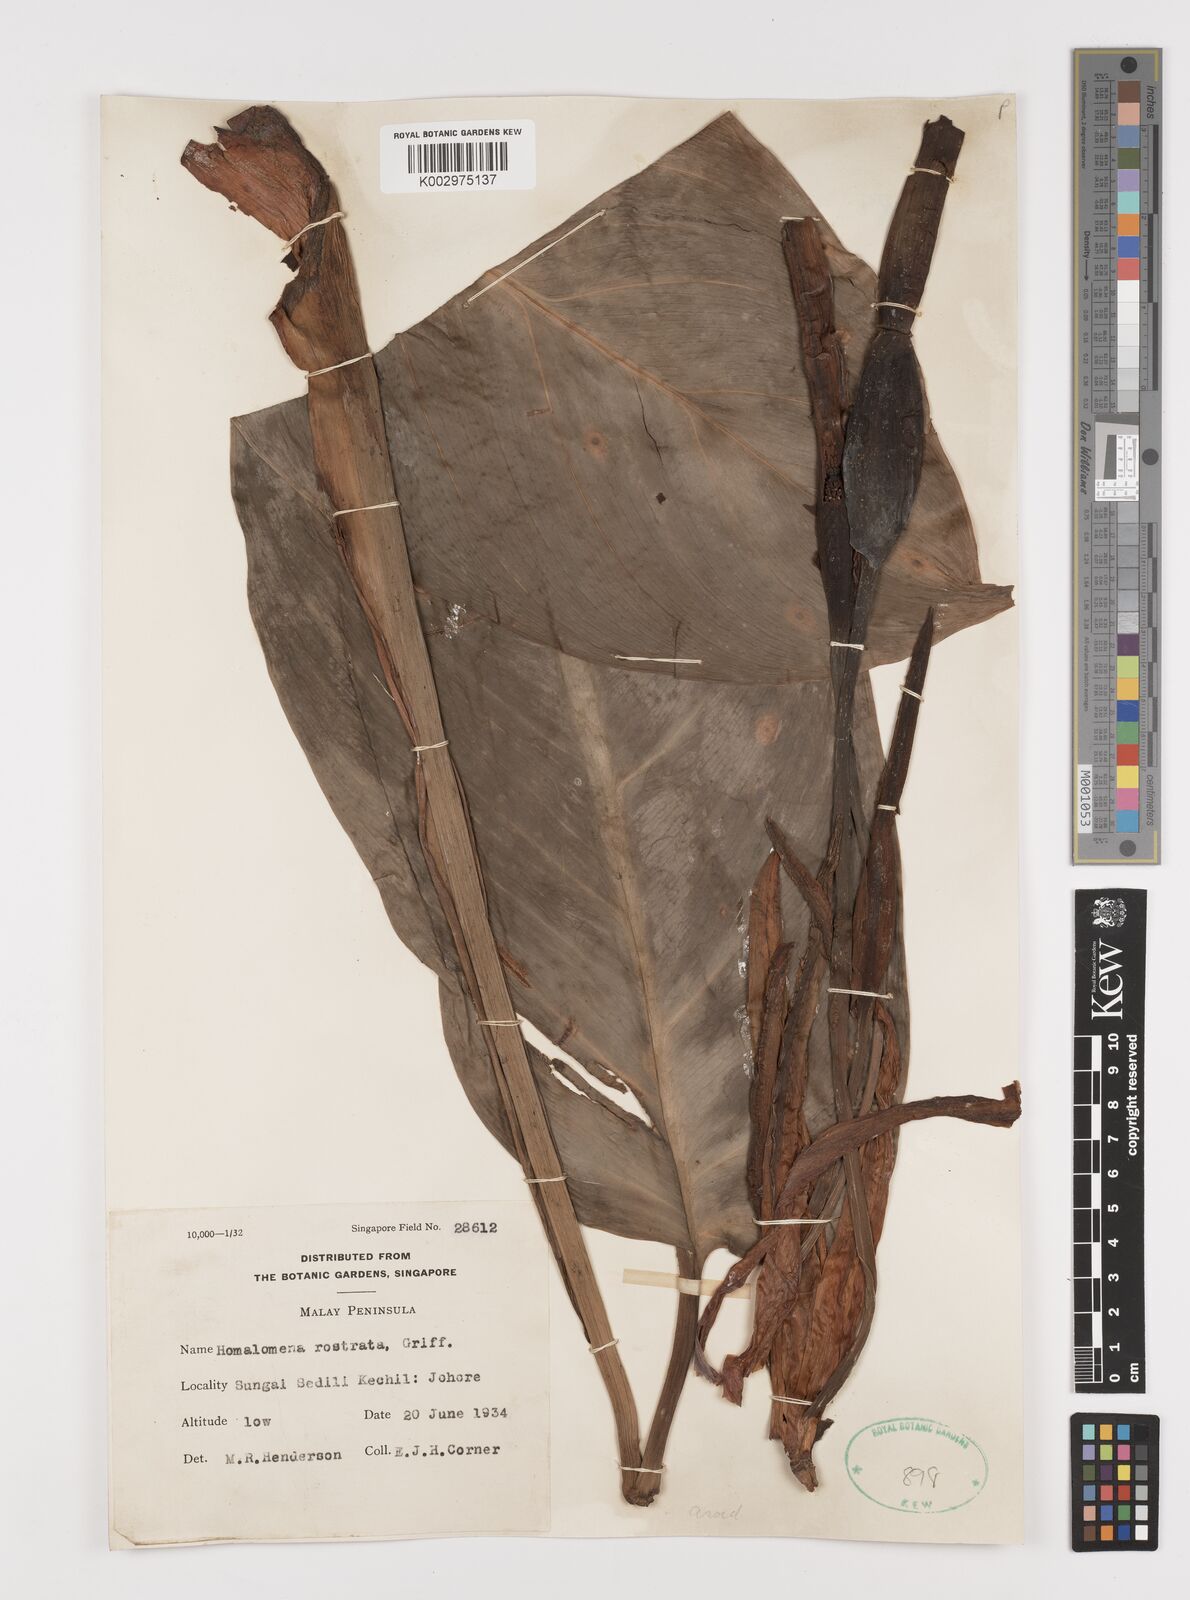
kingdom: Plantae
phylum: Tracheophyta
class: Liliopsida
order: Alismatales
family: Araceae
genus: Homalomena
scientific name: Homalomena rostrata
